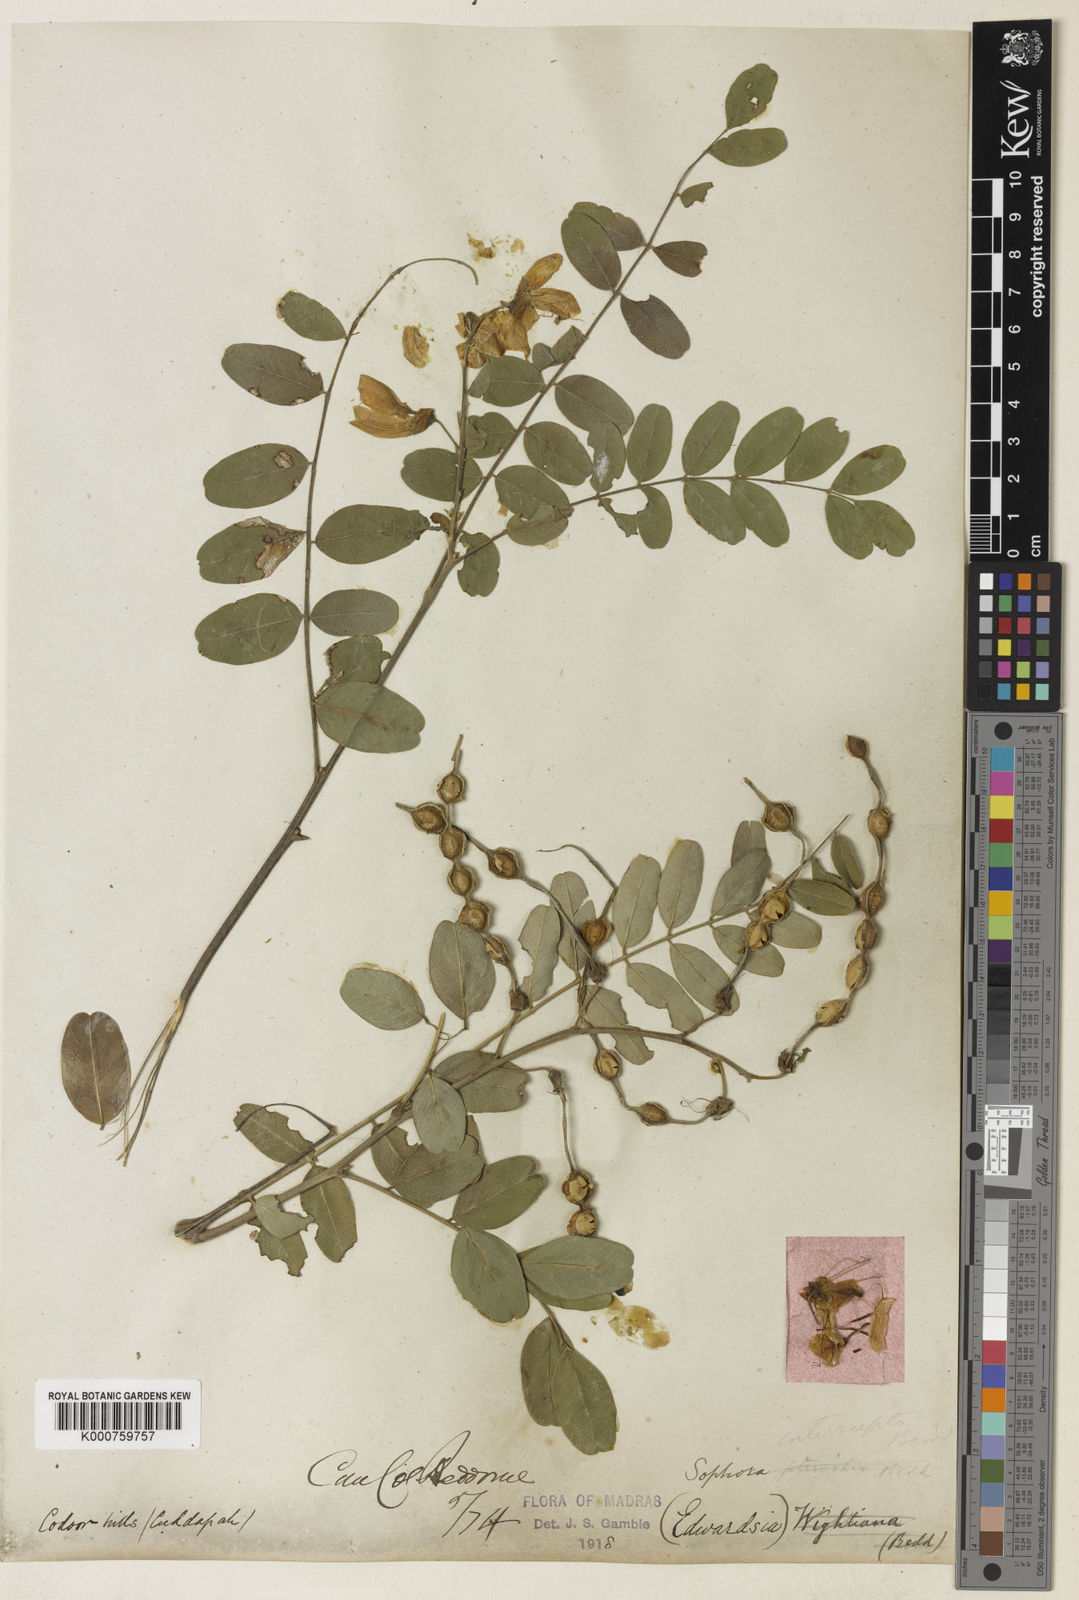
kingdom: Plantae
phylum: Tracheophyta
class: Magnoliopsida
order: Fabales
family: Fabaceae
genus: Sophora
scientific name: Sophora
